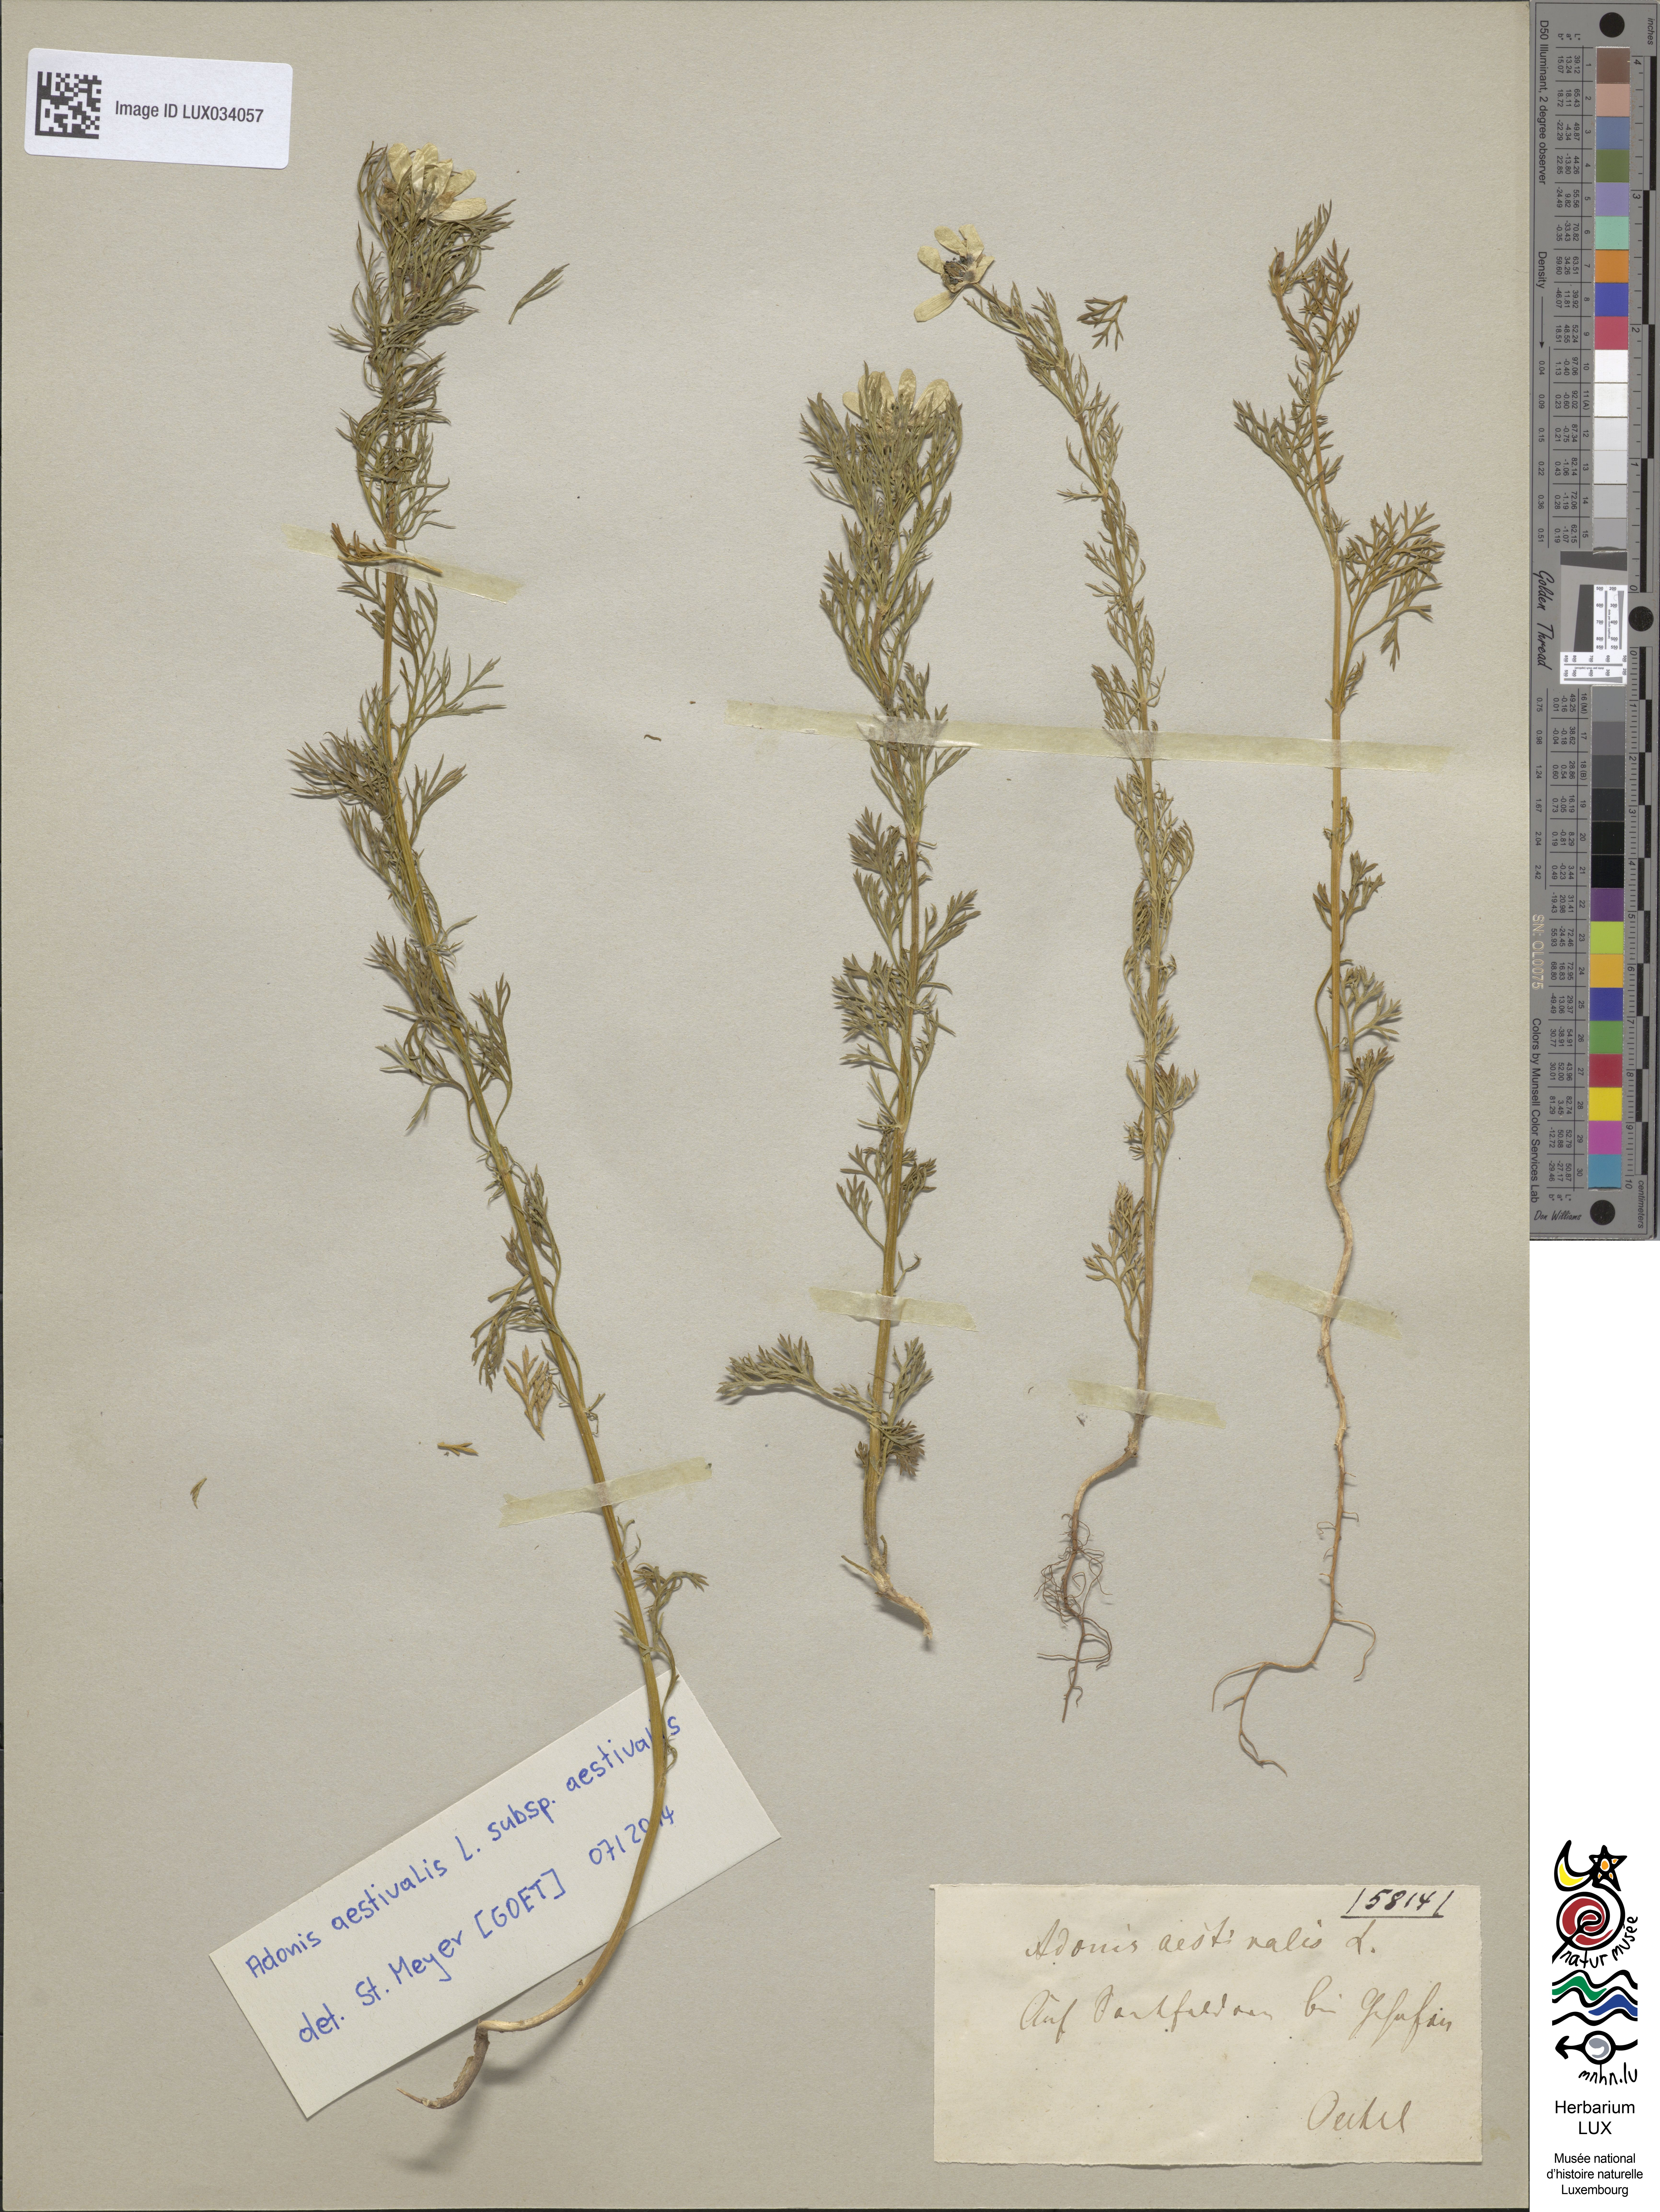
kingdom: Plantae
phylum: Tracheophyta
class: Magnoliopsida
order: Ranunculales
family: Ranunculaceae
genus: Adonis
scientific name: Adonis aestivalis
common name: Summer pheasant's-eye
